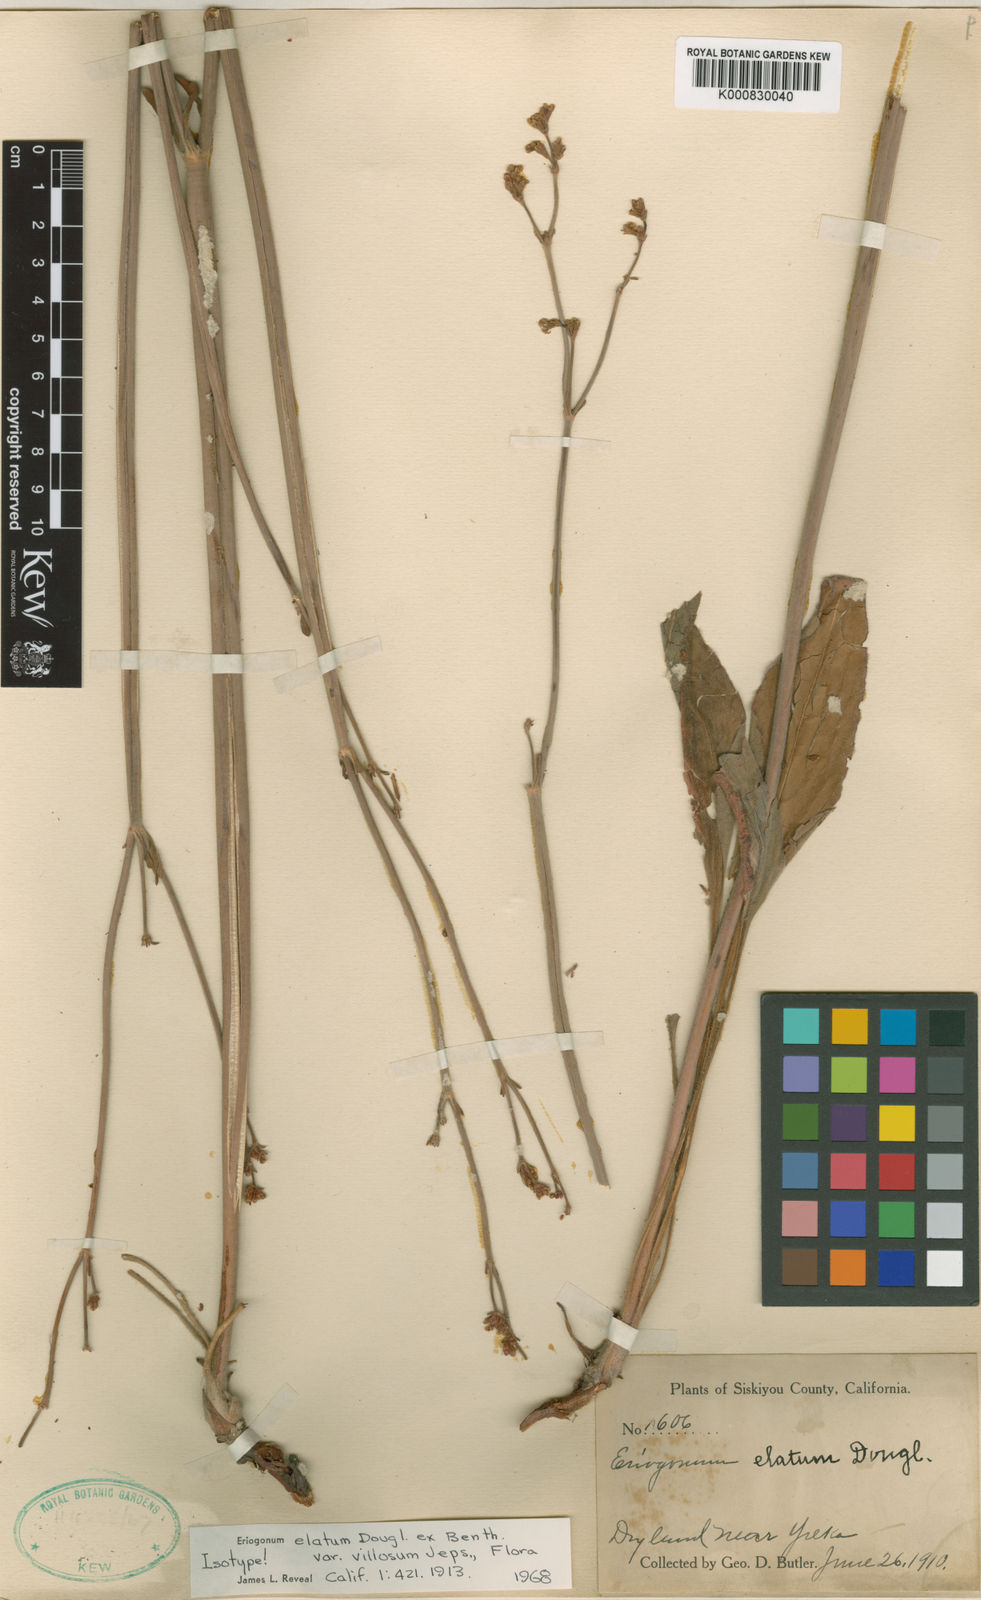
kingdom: Plantae
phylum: Tracheophyta
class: Magnoliopsida
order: Caryophyllales
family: Polygonaceae
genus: Eriogonum
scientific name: Eriogonum elatum
